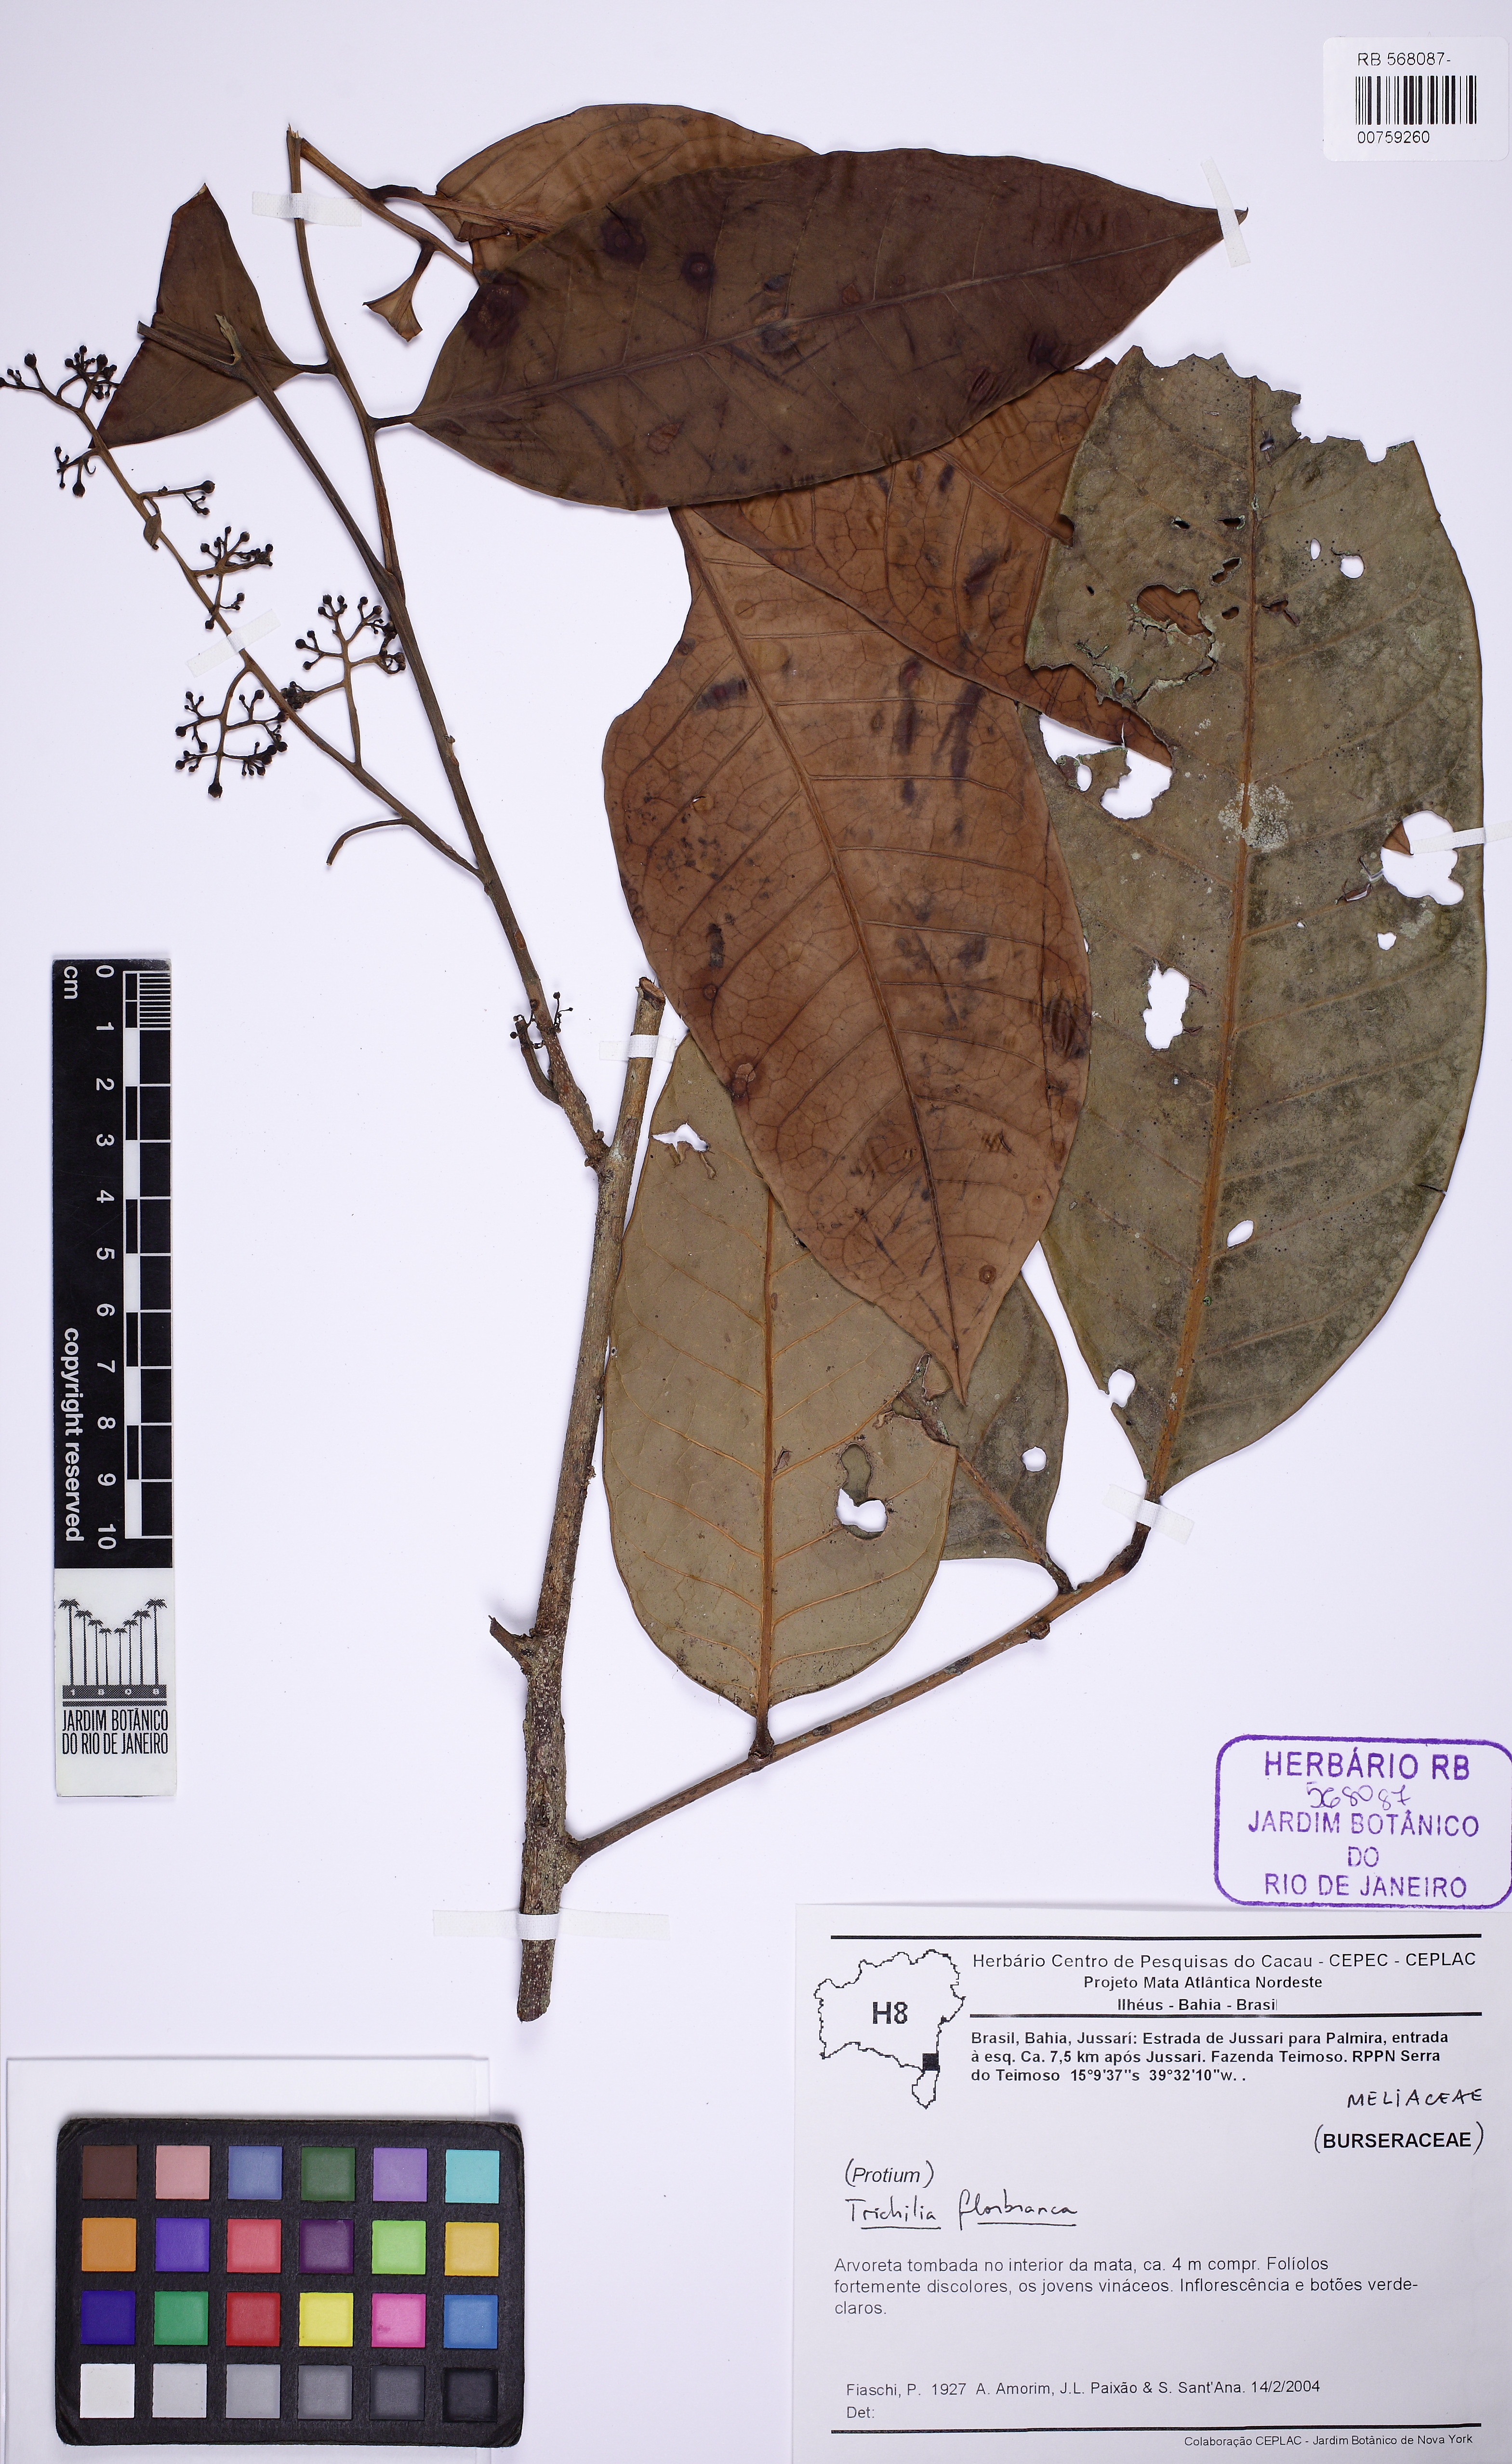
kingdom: Plantae
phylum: Tracheophyta
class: Magnoliopsida
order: Sapindales
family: Meliaceae
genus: Trichilia
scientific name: Trichilia florbranca
